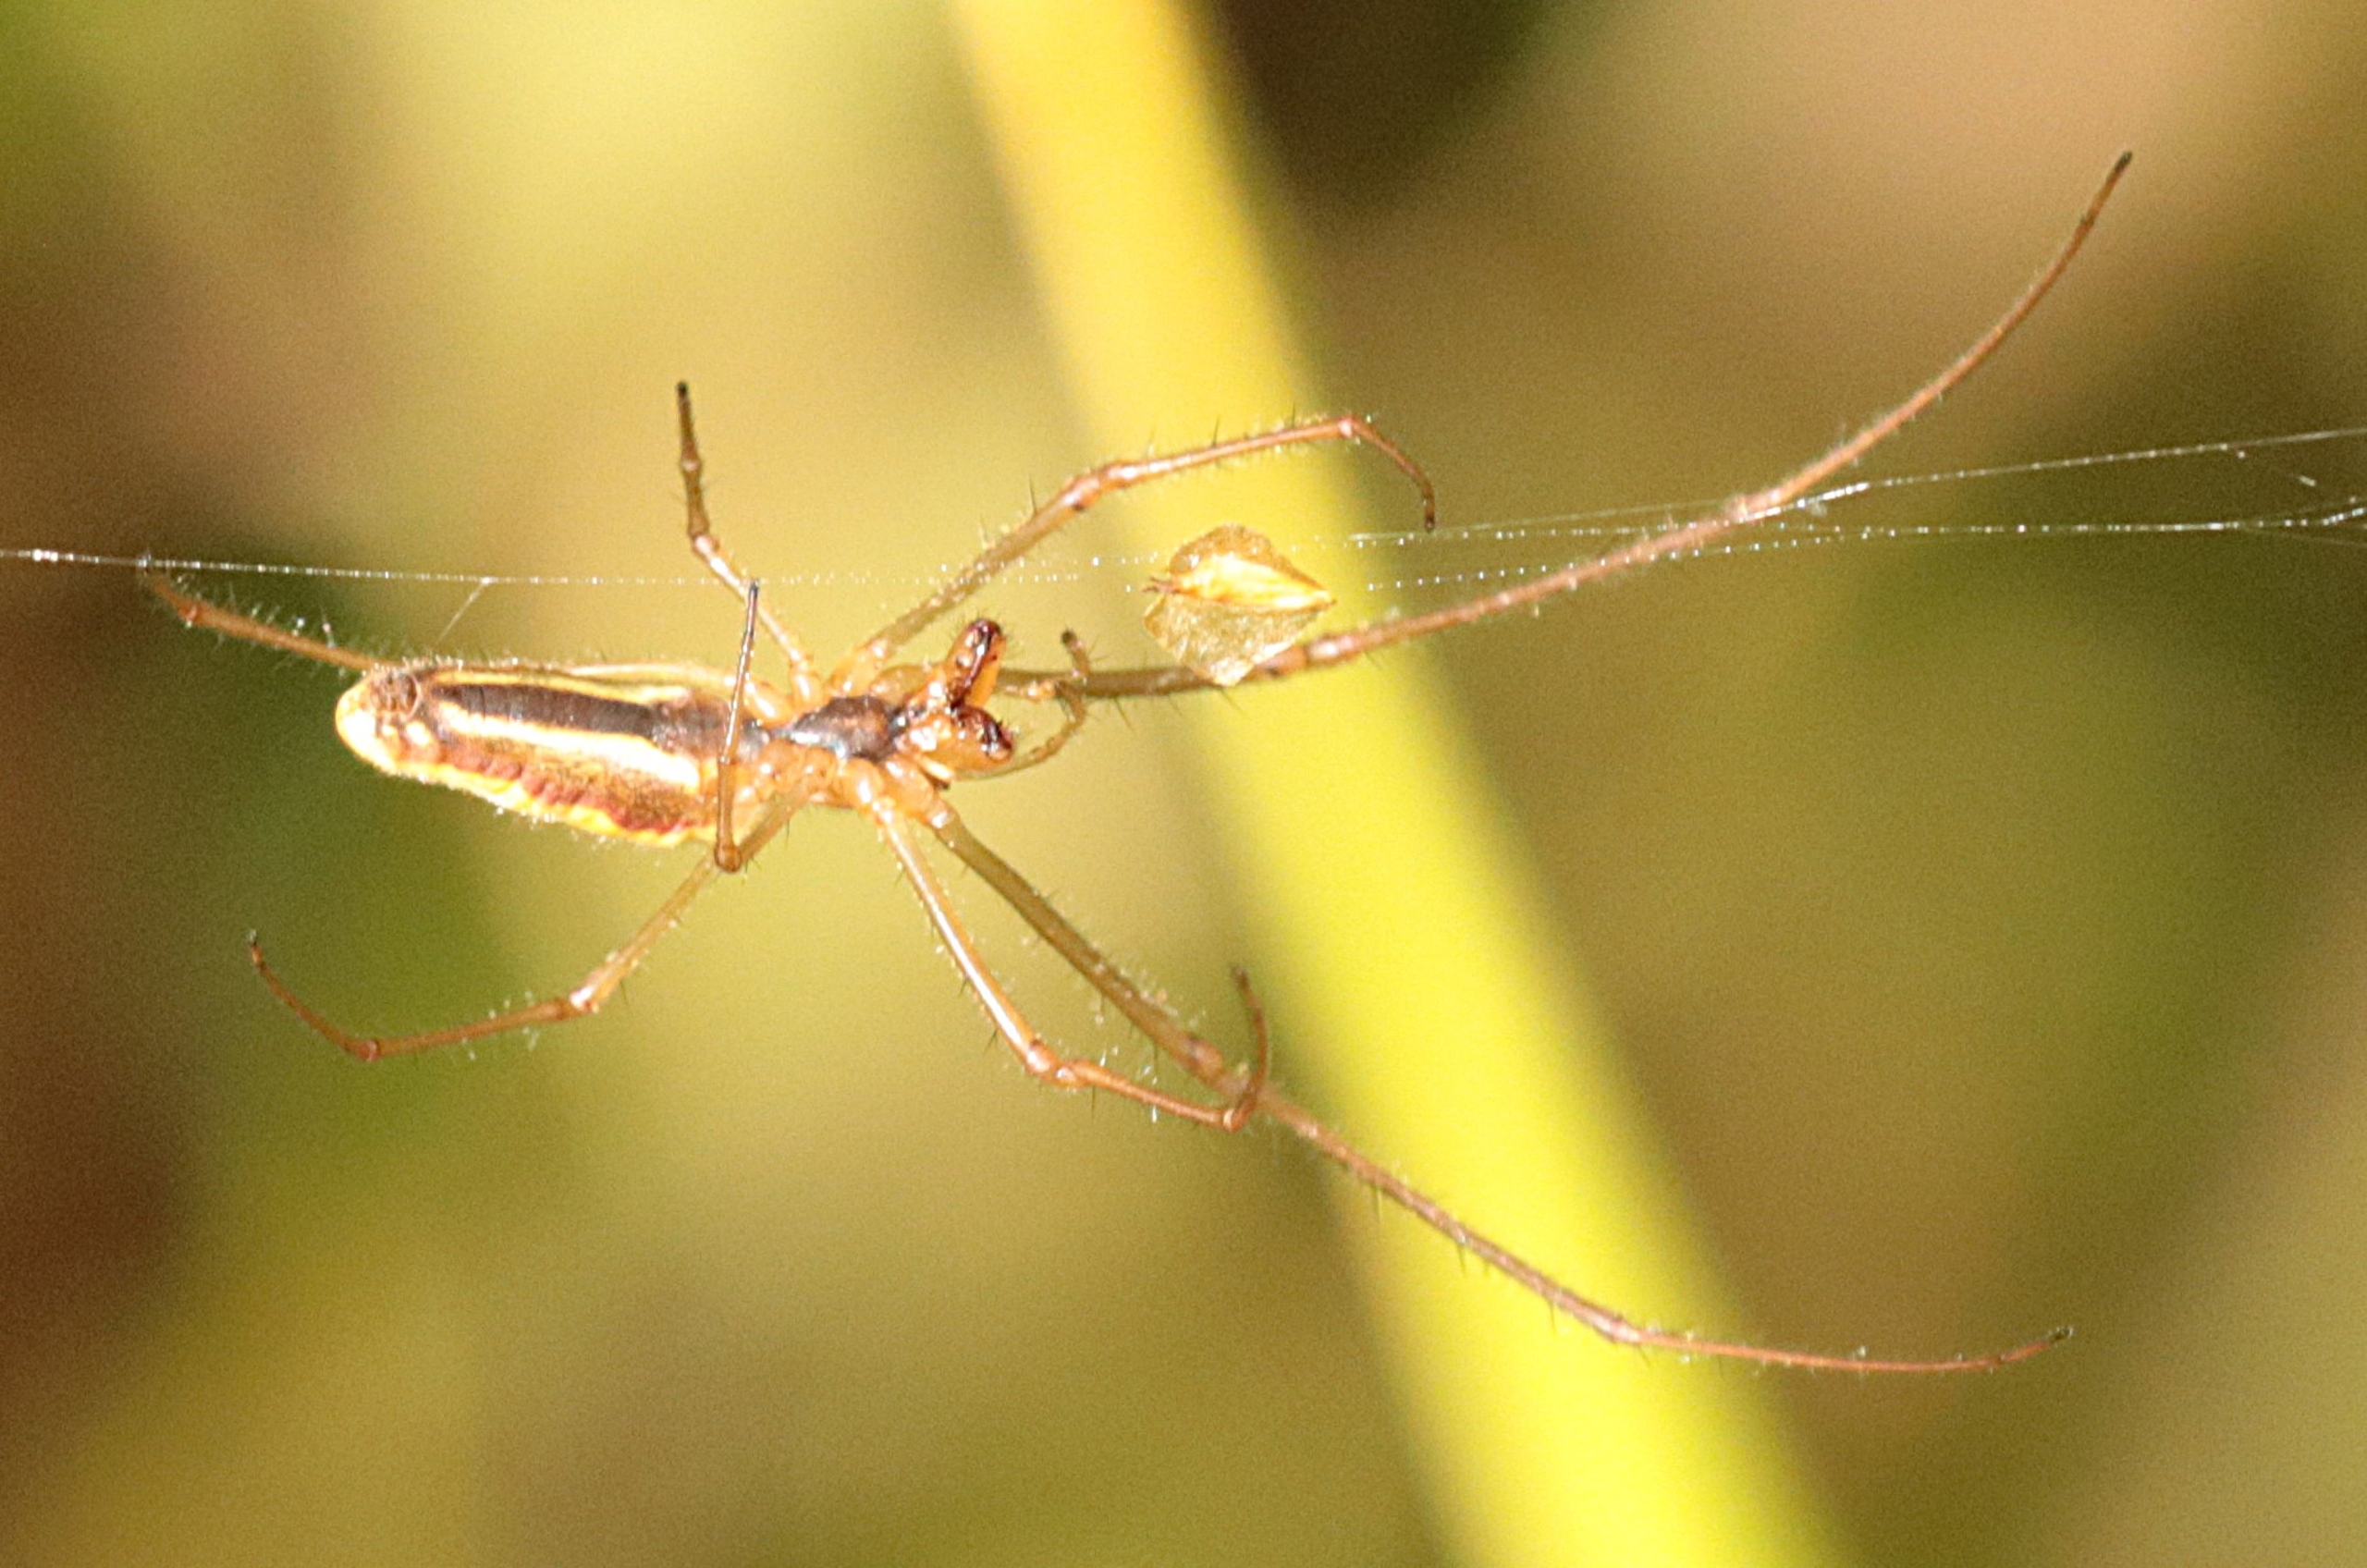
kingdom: Animalia
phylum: Arthropoda
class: Arachnida
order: Araneae
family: Tetragnathidae
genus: Tetragnatha
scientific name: Tetragnatha
